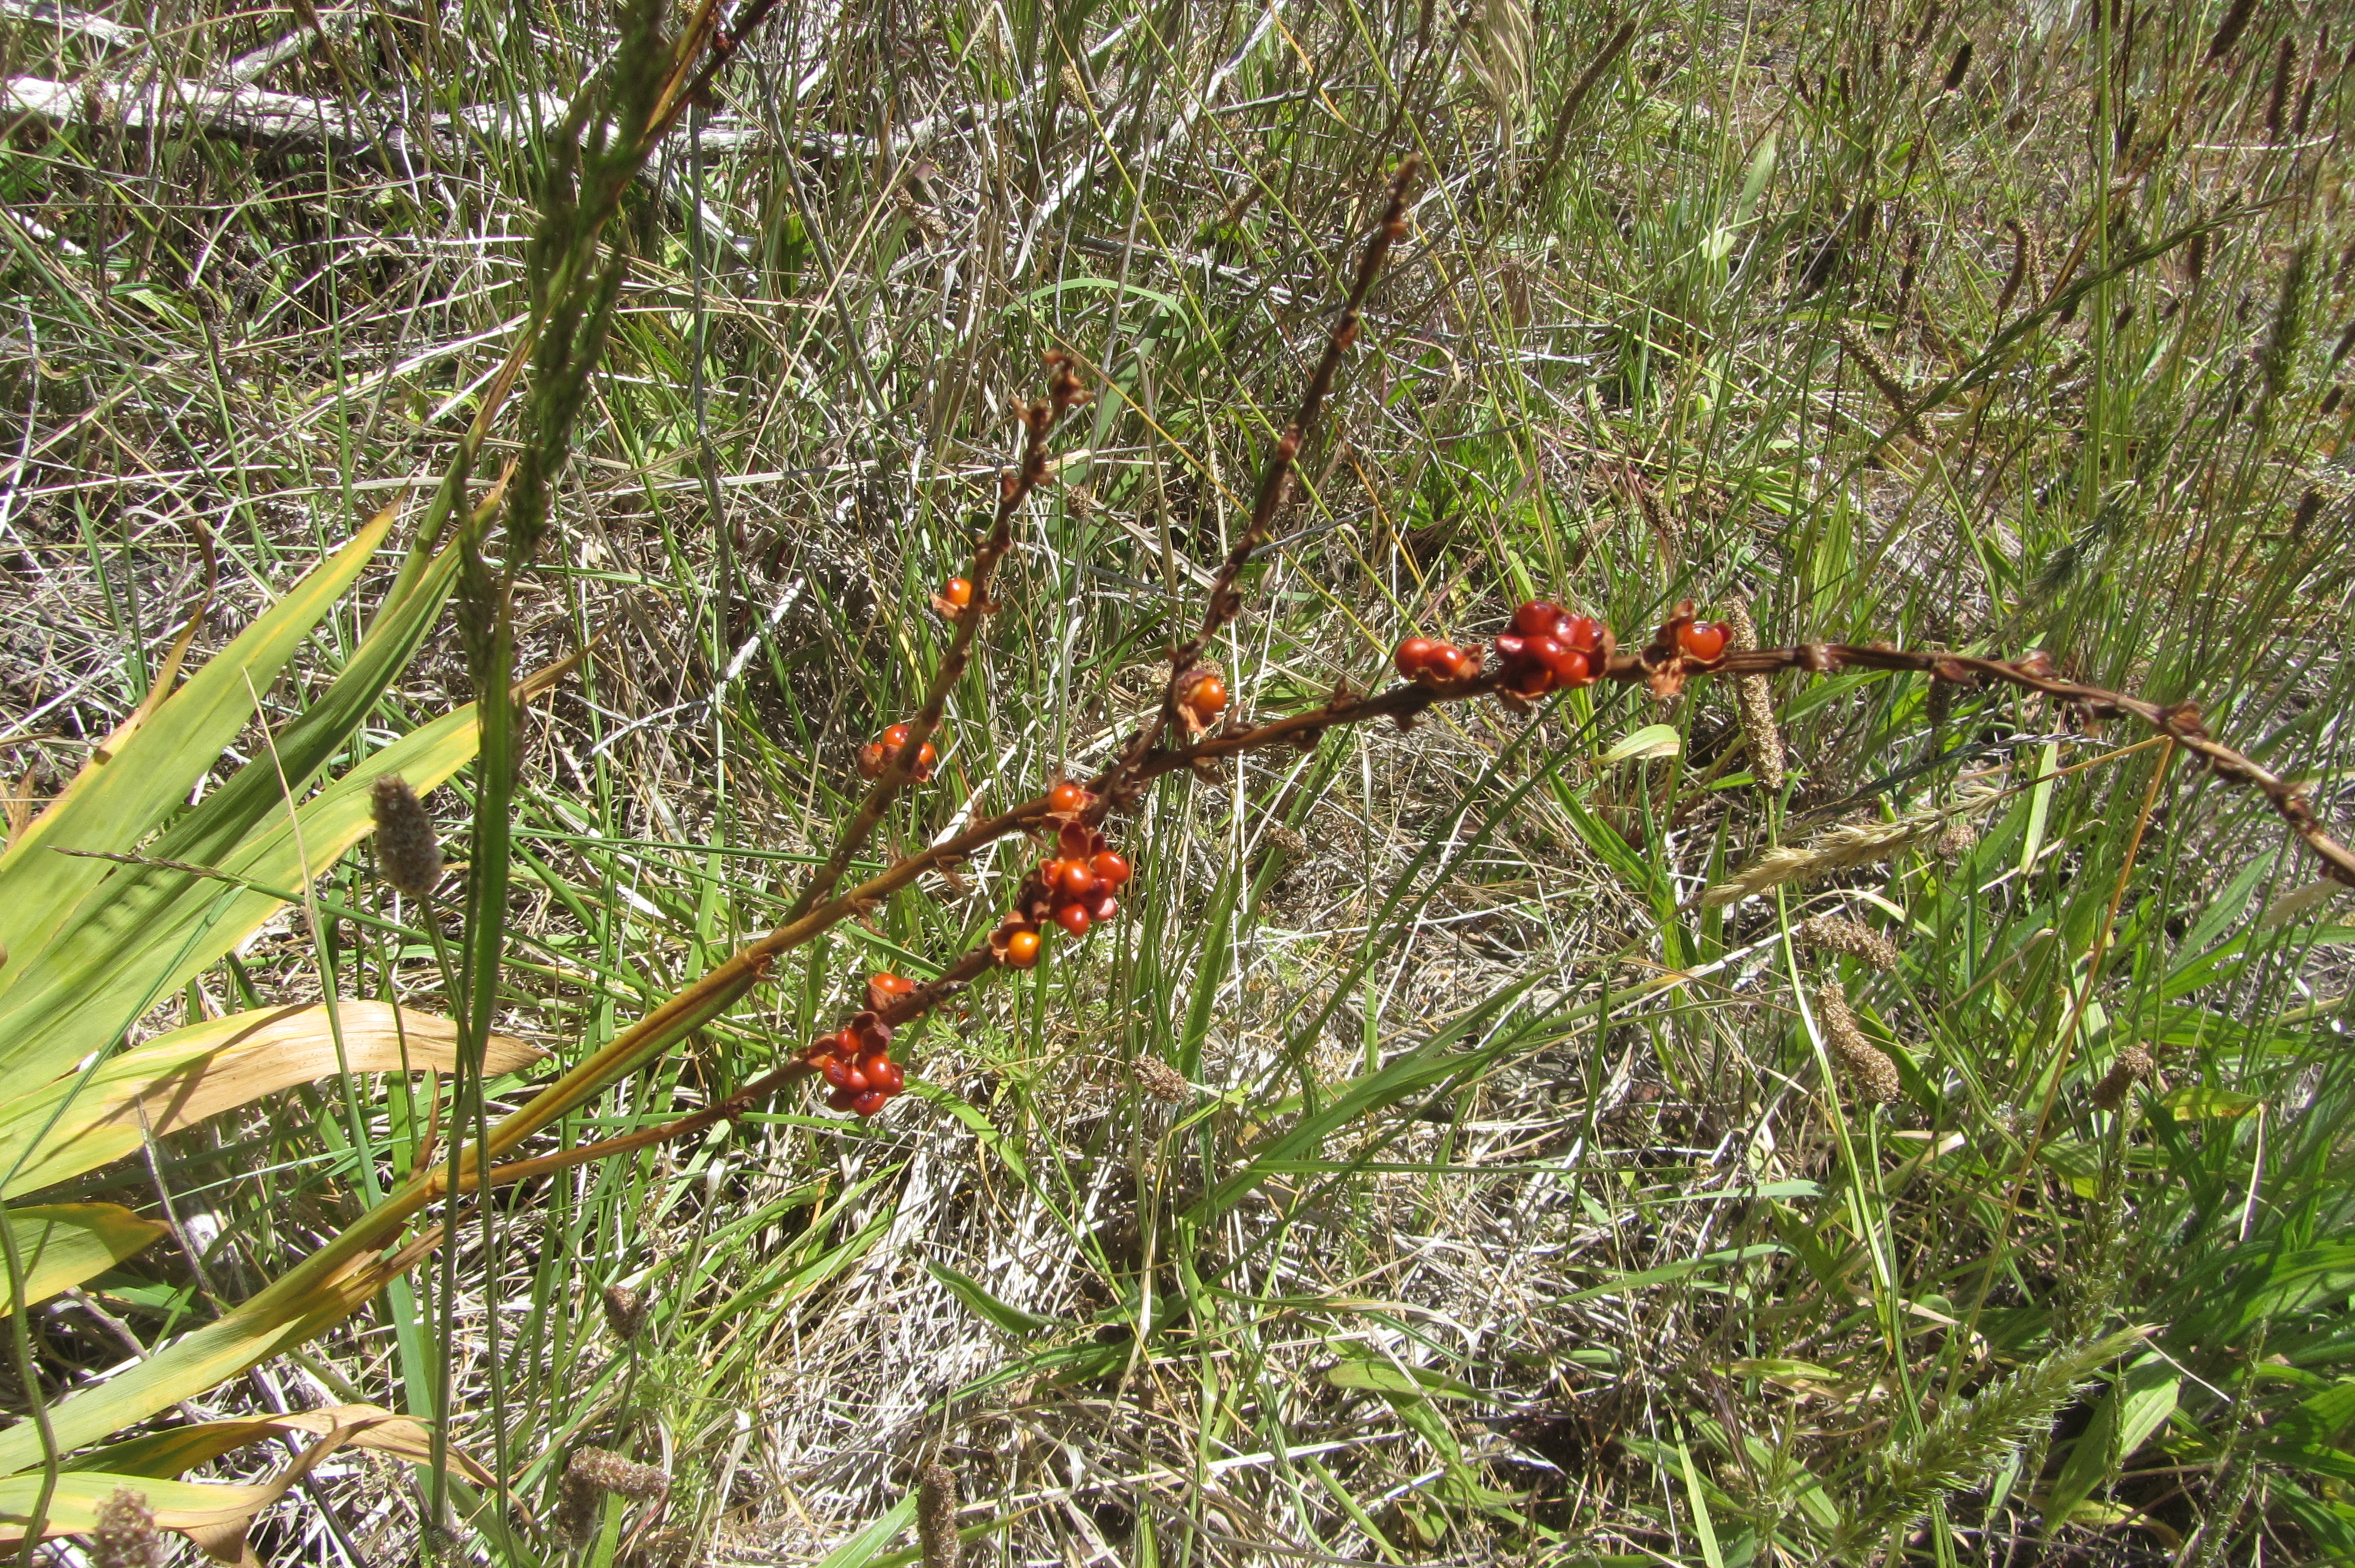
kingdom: Plantae
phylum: Tracheophyta
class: Liliopsida
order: Asparagales
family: Iridaceae
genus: Crocosmia
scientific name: Crocosmia crocosmiiflora
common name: Montbretia
